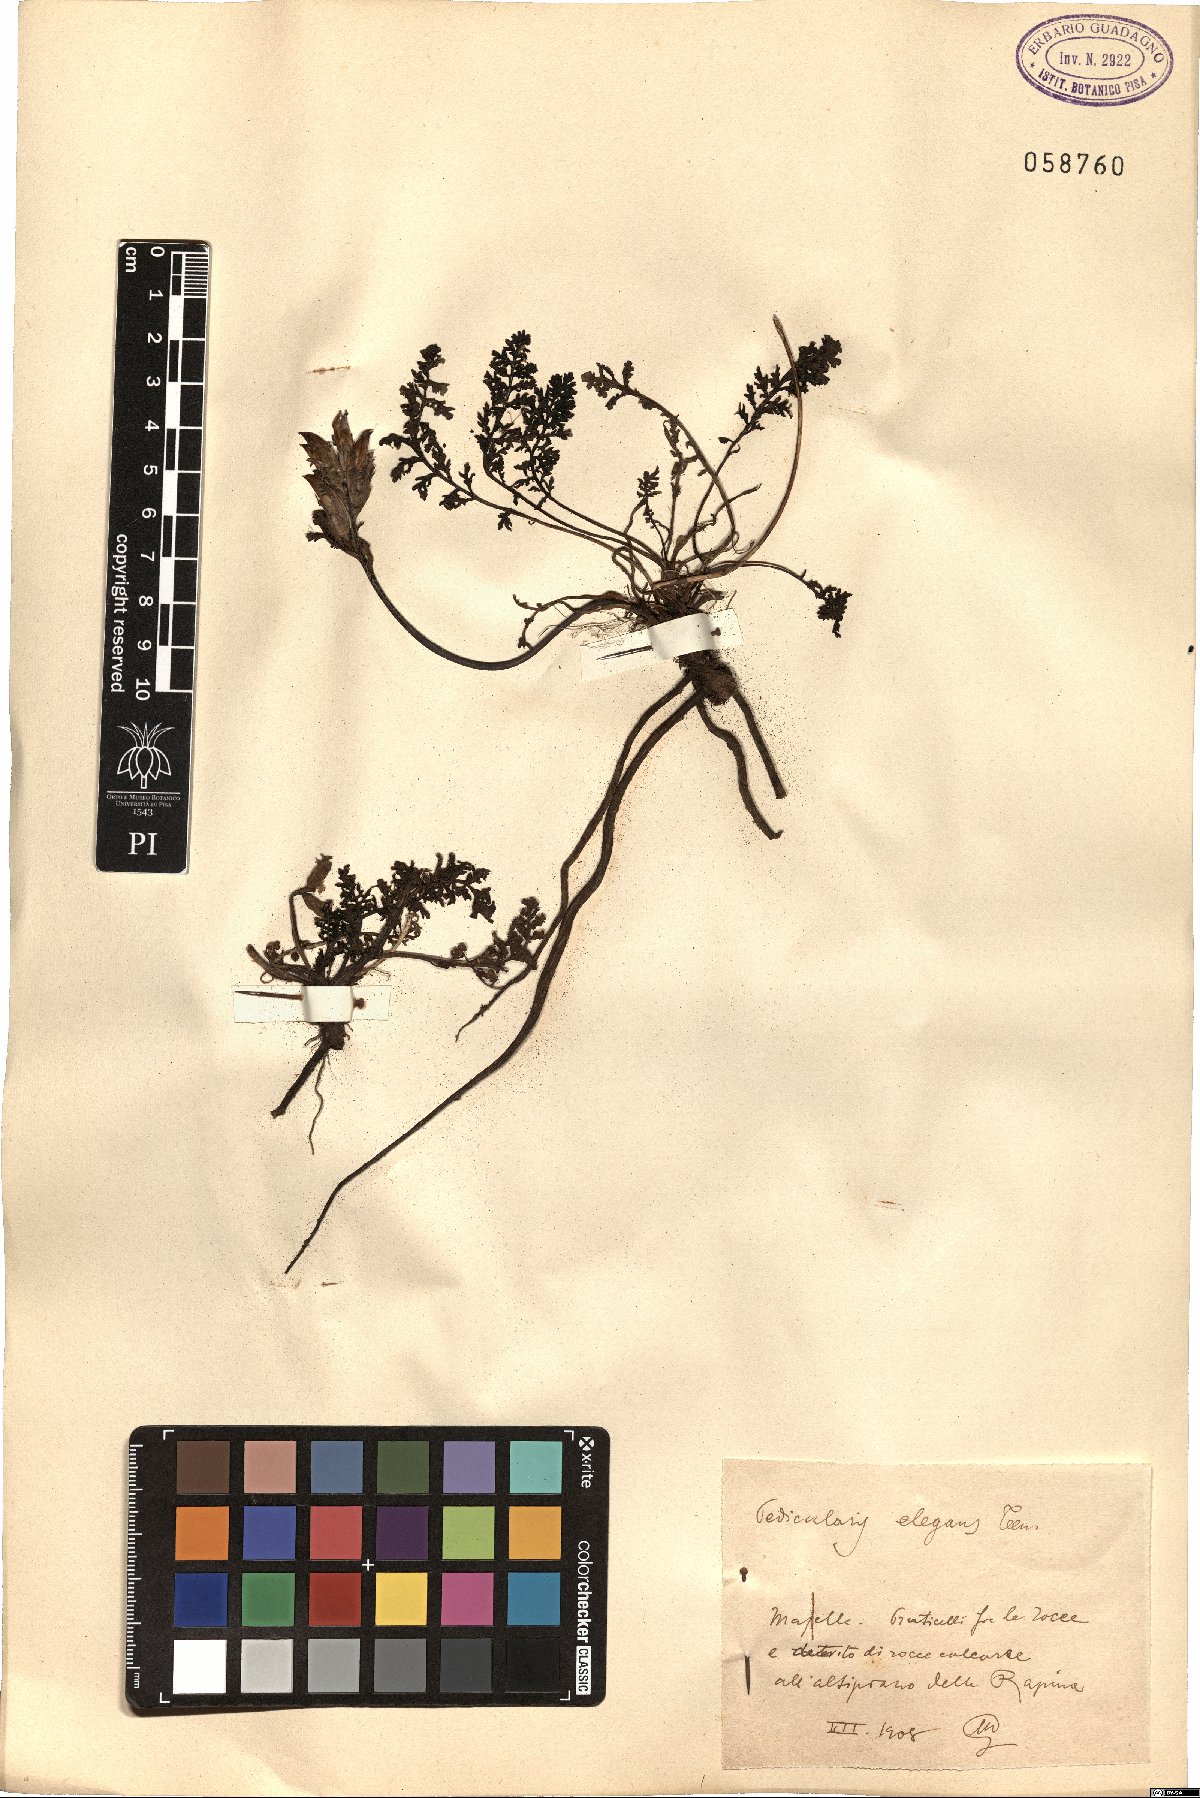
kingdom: Plantae
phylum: Tracheophyta
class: Magnoliopsida
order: Lamiales
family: Orobanchaceae
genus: Pedicularis
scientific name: Pedicularis elegans
